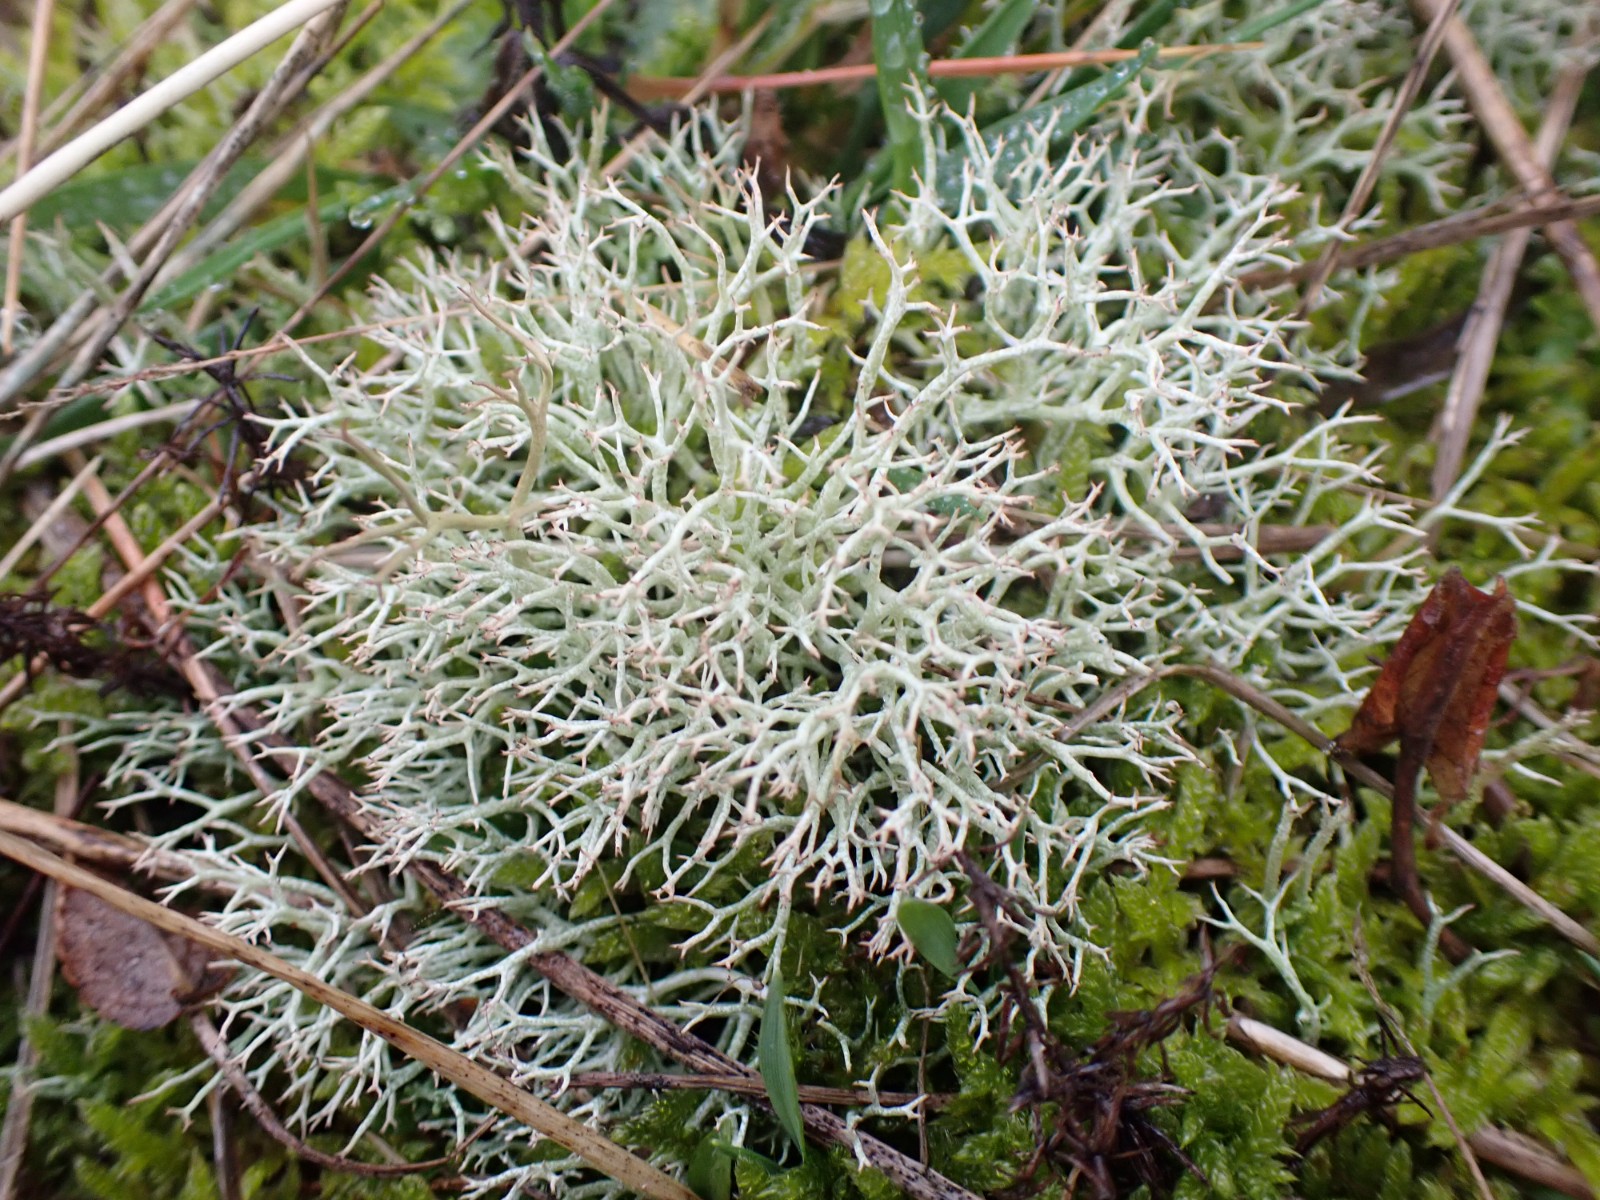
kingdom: Fungi
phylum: Ascomycota
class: Lecanoromycetes
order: Lecanorales
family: Cladoniaceae
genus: Cladonia
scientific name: Cladonia rangiformis
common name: spættet bægerlav
